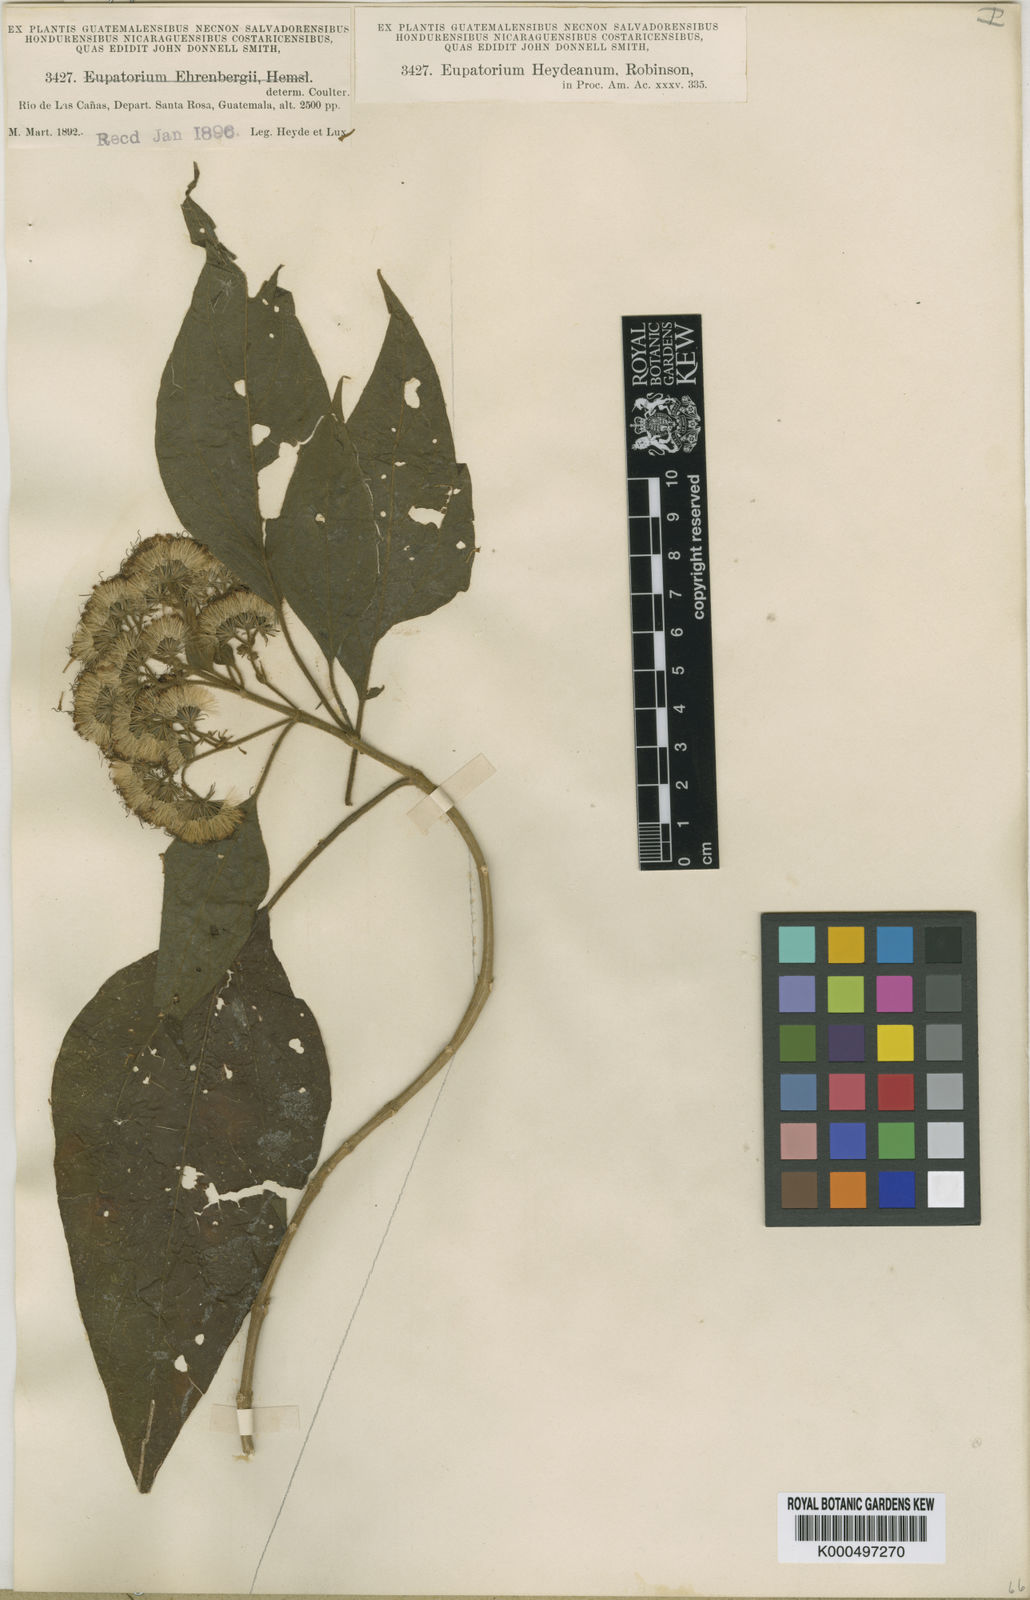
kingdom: Plantae
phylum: Tracheophyta
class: Magnoliopsida
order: Asterales
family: Asteraceae
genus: Bartlettina
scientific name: Bartlettina heydeana
